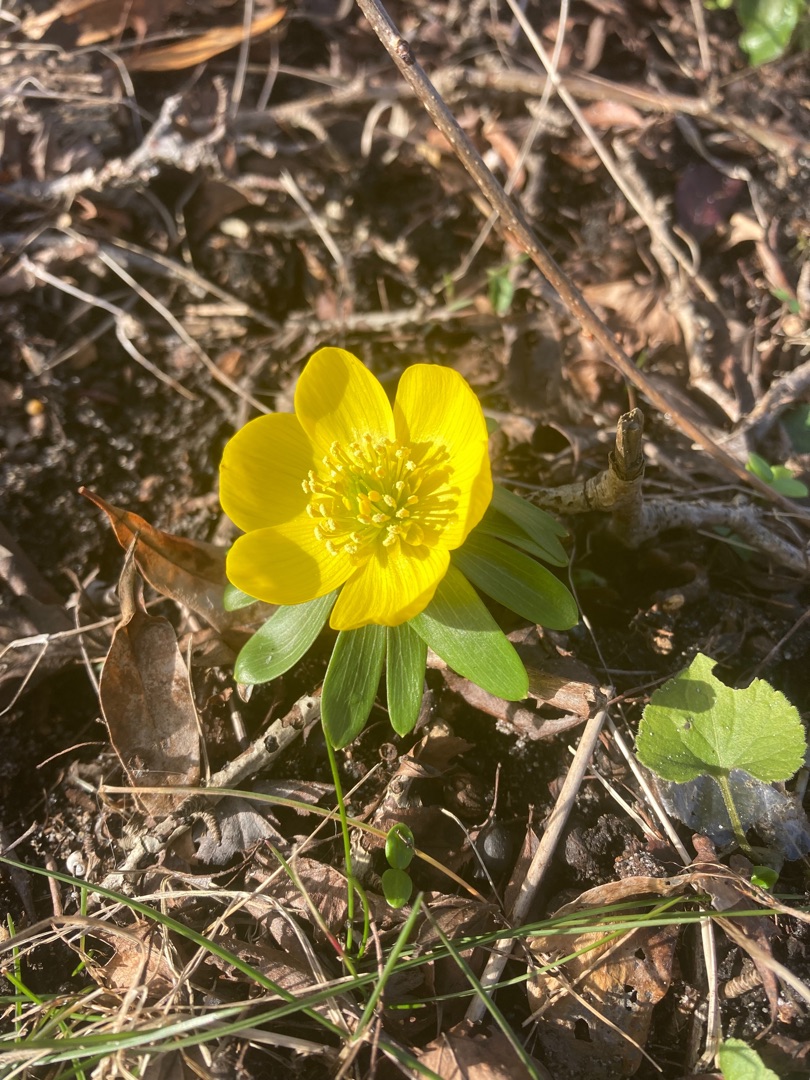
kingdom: Plantae
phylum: Tracheophyta
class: Magnoliopsida
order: Ranunculales
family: Ranunculaceae
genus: Eranthis
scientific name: Eranthis hyemalis
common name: Erantis
